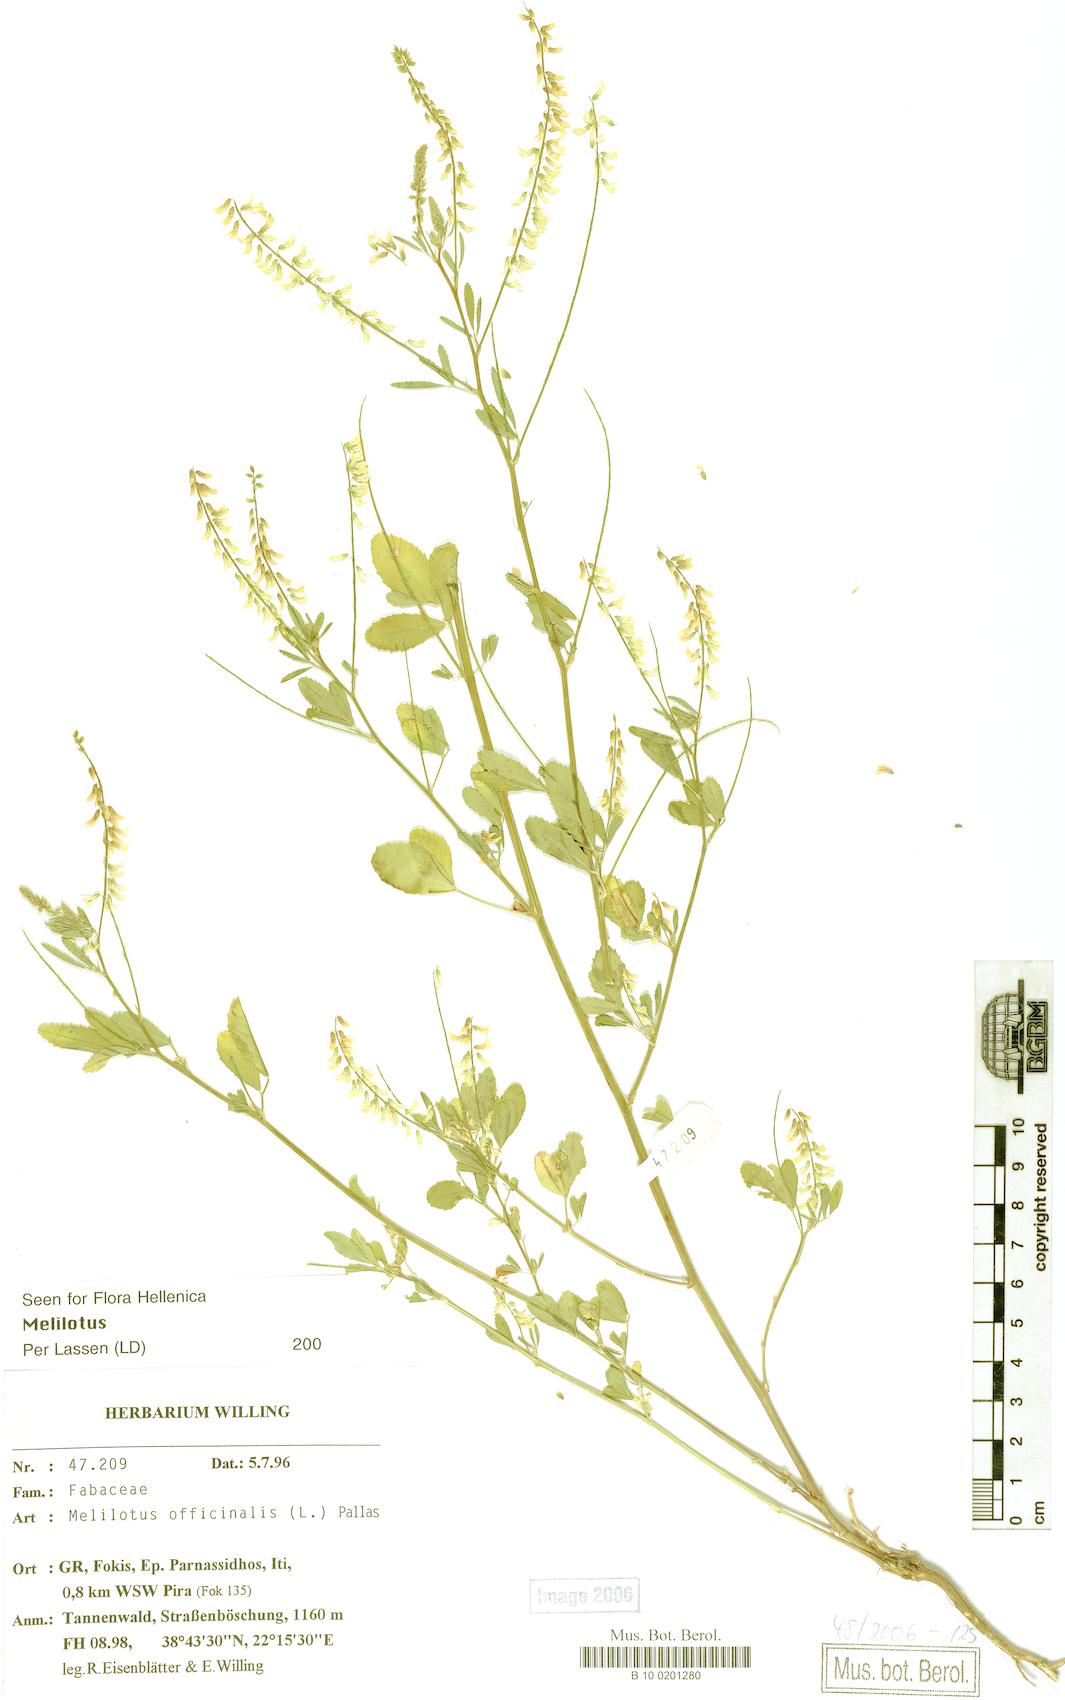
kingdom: Plantae
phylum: Tracheophyta
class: Magnoliopsida
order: Fabales
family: Fabaceae
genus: Melilotus
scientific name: Melilotus officinalis
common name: Sweetclover
